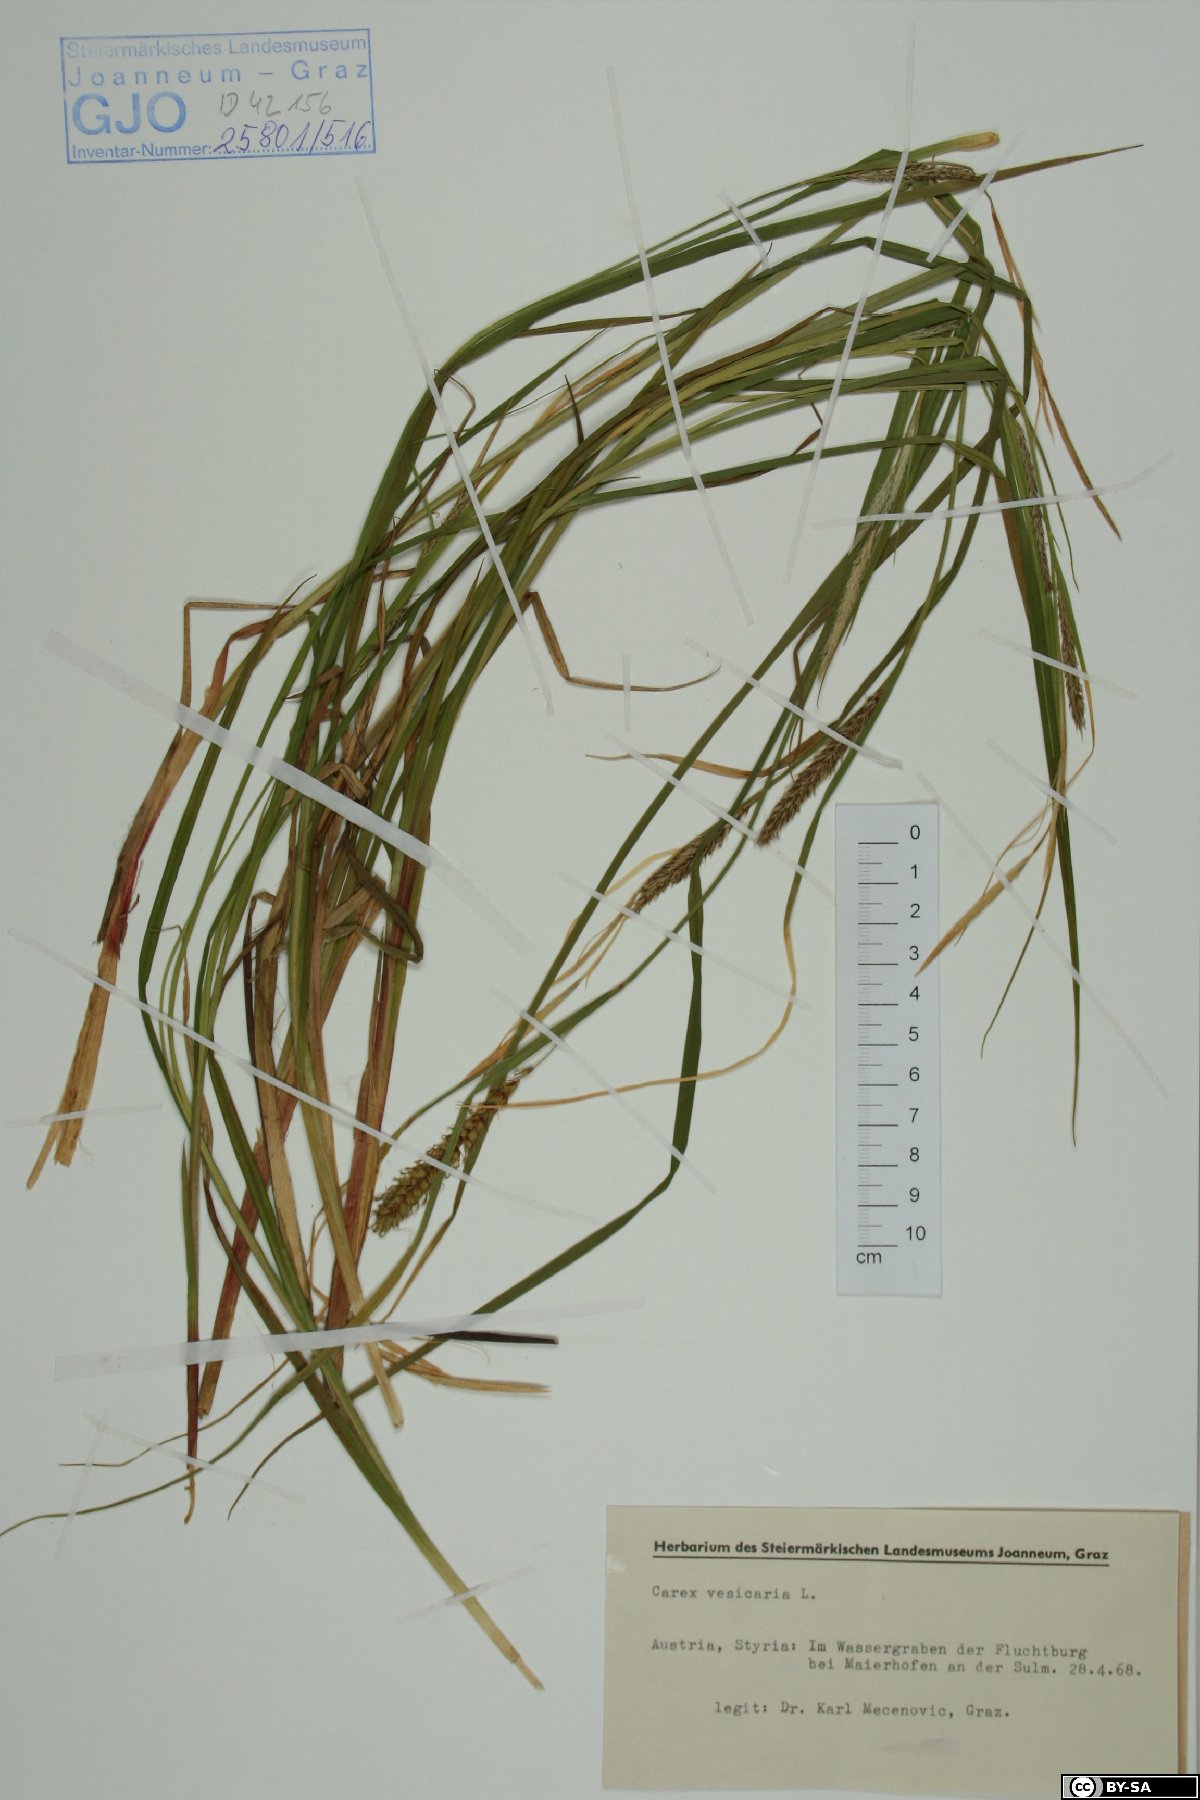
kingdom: Plantae
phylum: Tracheophyta
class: Liliopsida
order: Poales
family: Cyperaceae
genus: Carex
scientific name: Carex vesicaria
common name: Bladder-sedge
